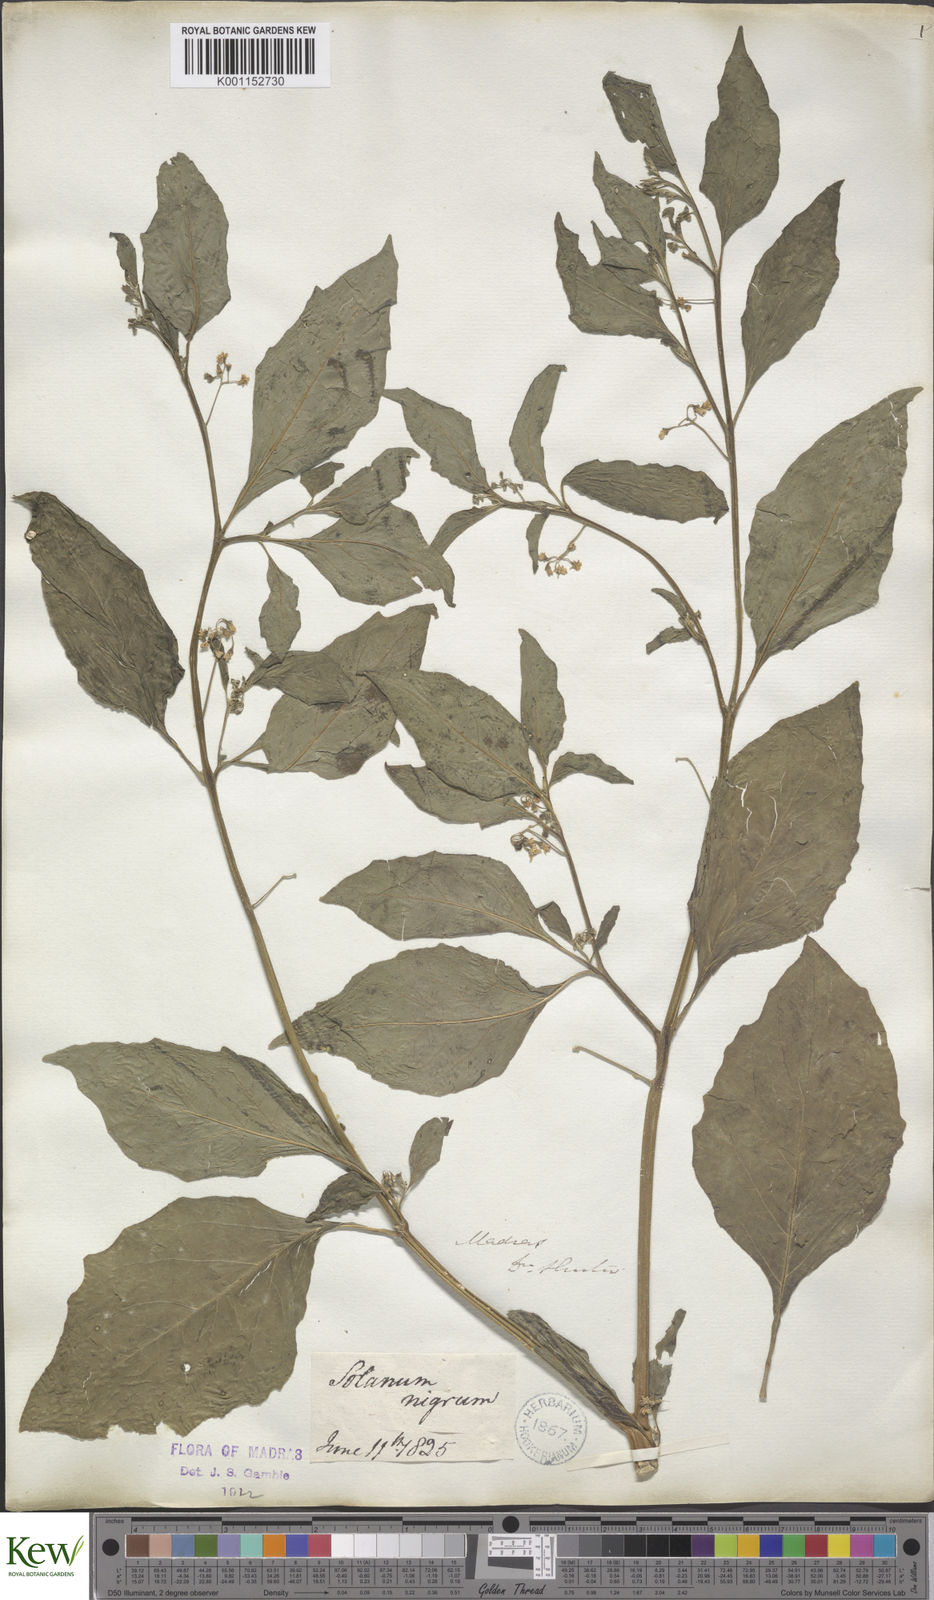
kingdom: Plantae
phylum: Tracheophyta
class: Magnoliopsida
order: Solanales
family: Solanaceae
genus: Solanum
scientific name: Solanum nigrum
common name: Black nightshade
